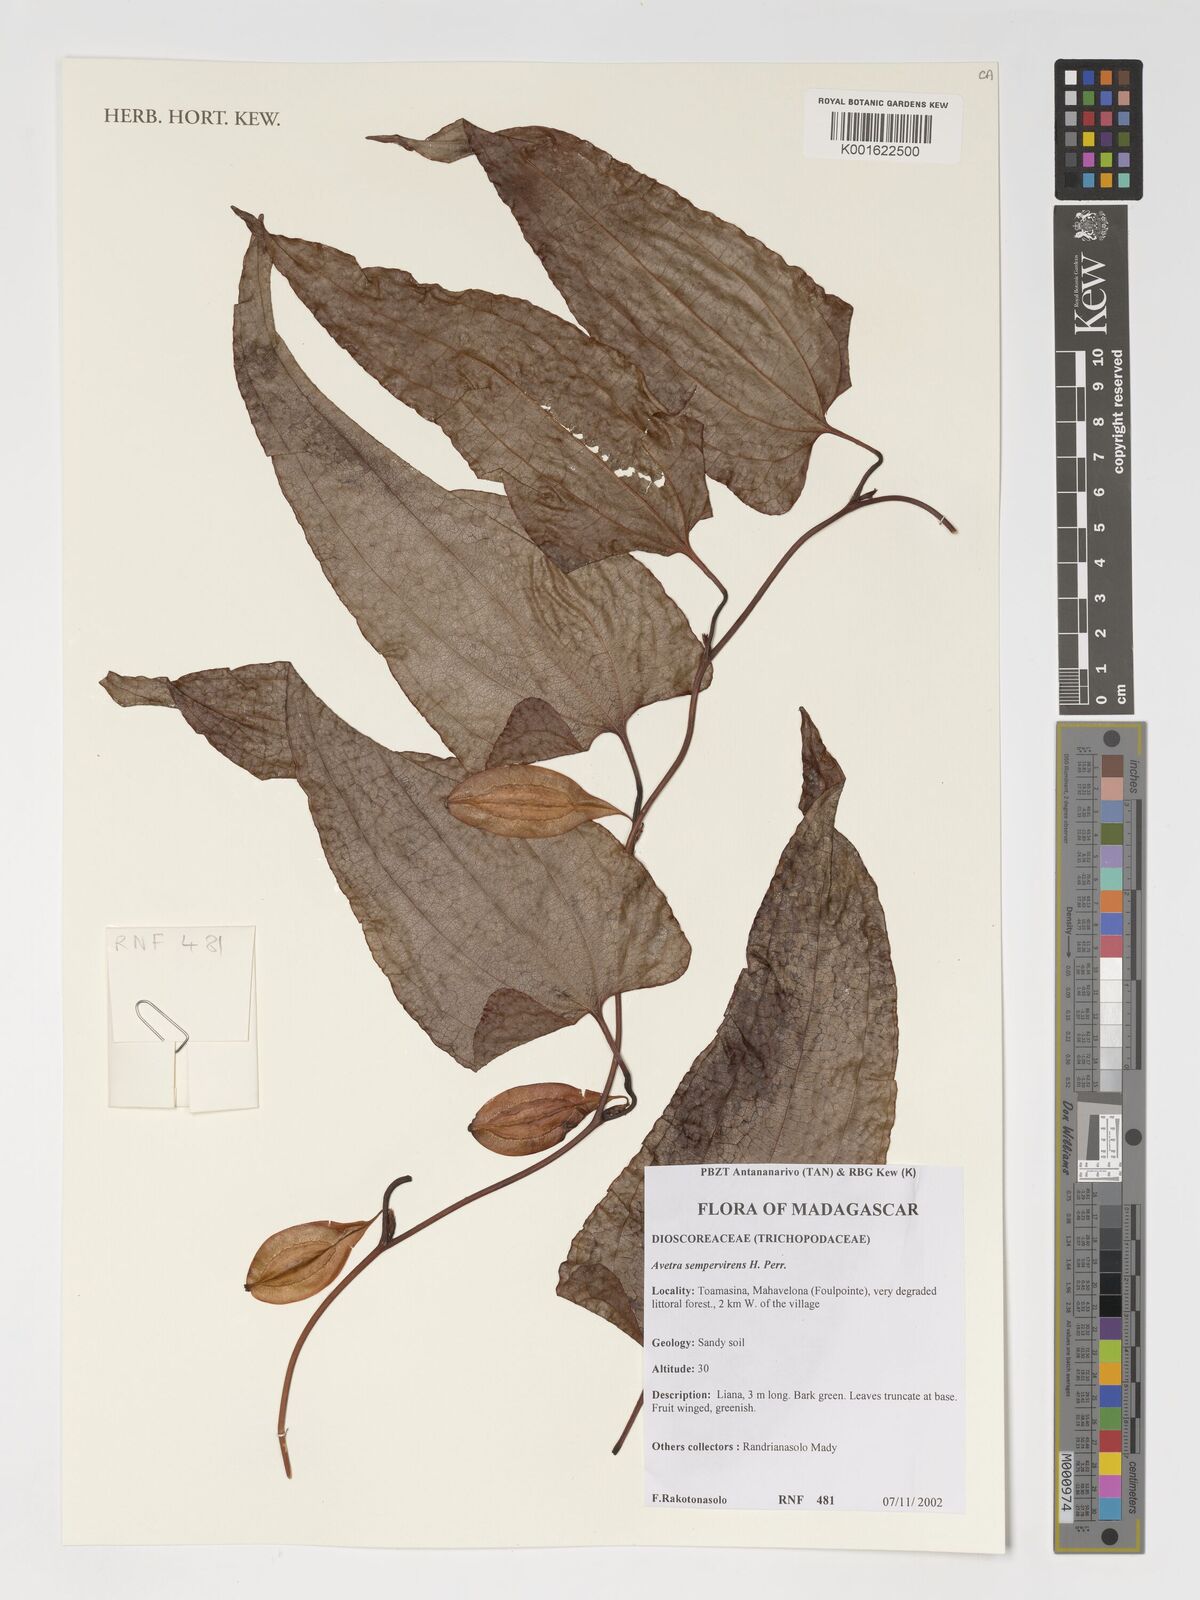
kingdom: Plantae
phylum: Tracheophyta
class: Liliopsida
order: Dioscoreales
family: Dioscoreaceae
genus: Trichopus
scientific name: Trichopus sempervirens
